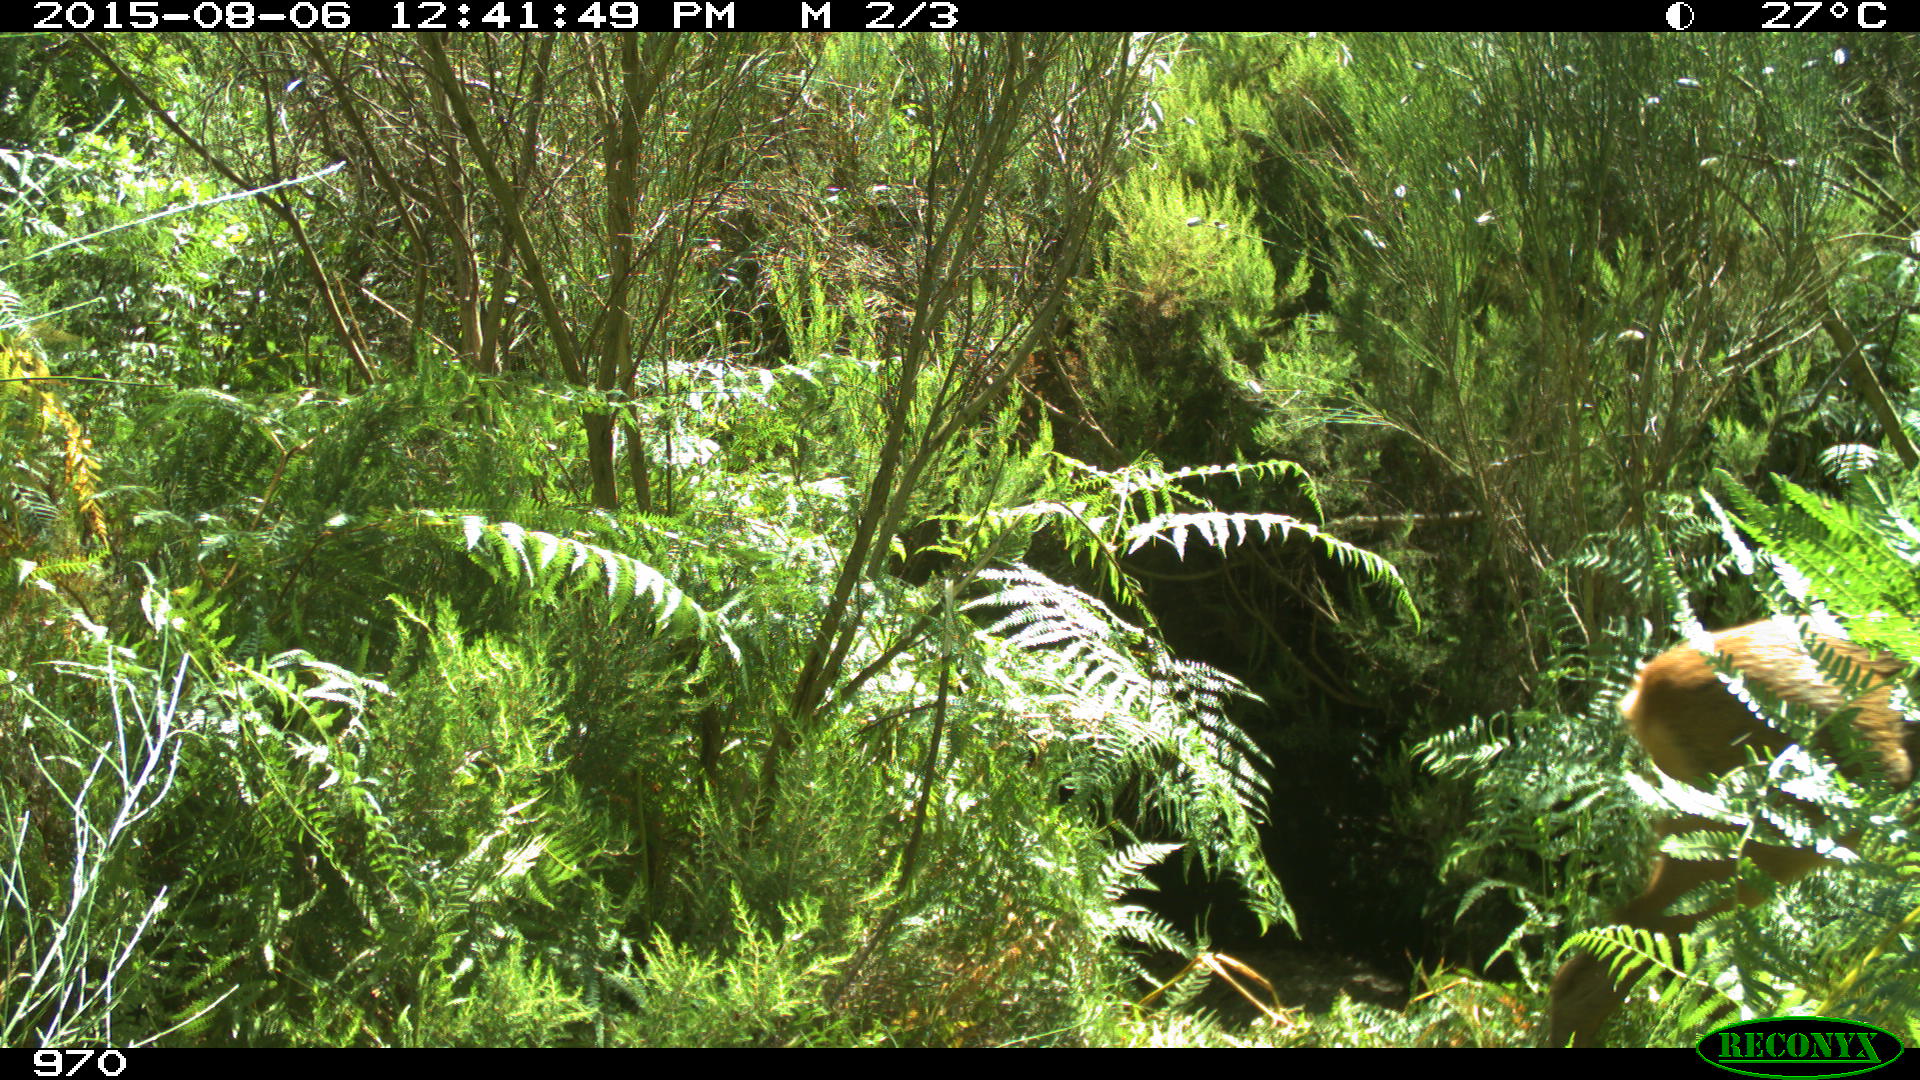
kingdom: Animalia
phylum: Chordata
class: Mammalia
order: Artiodactyla
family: Cervidae
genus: Capreolus
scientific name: Capreolus capreolus
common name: Western roe deer
